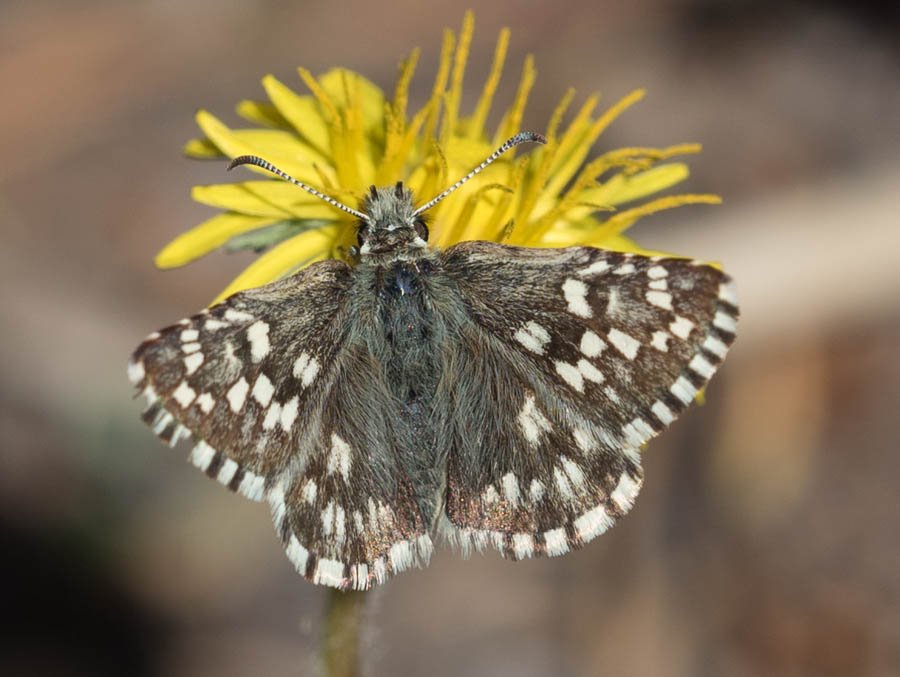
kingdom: Animalia
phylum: Arthropoda
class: Insecta
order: Lepidoptera
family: Hesperiidae
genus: Pyrgus
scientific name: Pyrgus centaureae
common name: Grizzled Skipper
